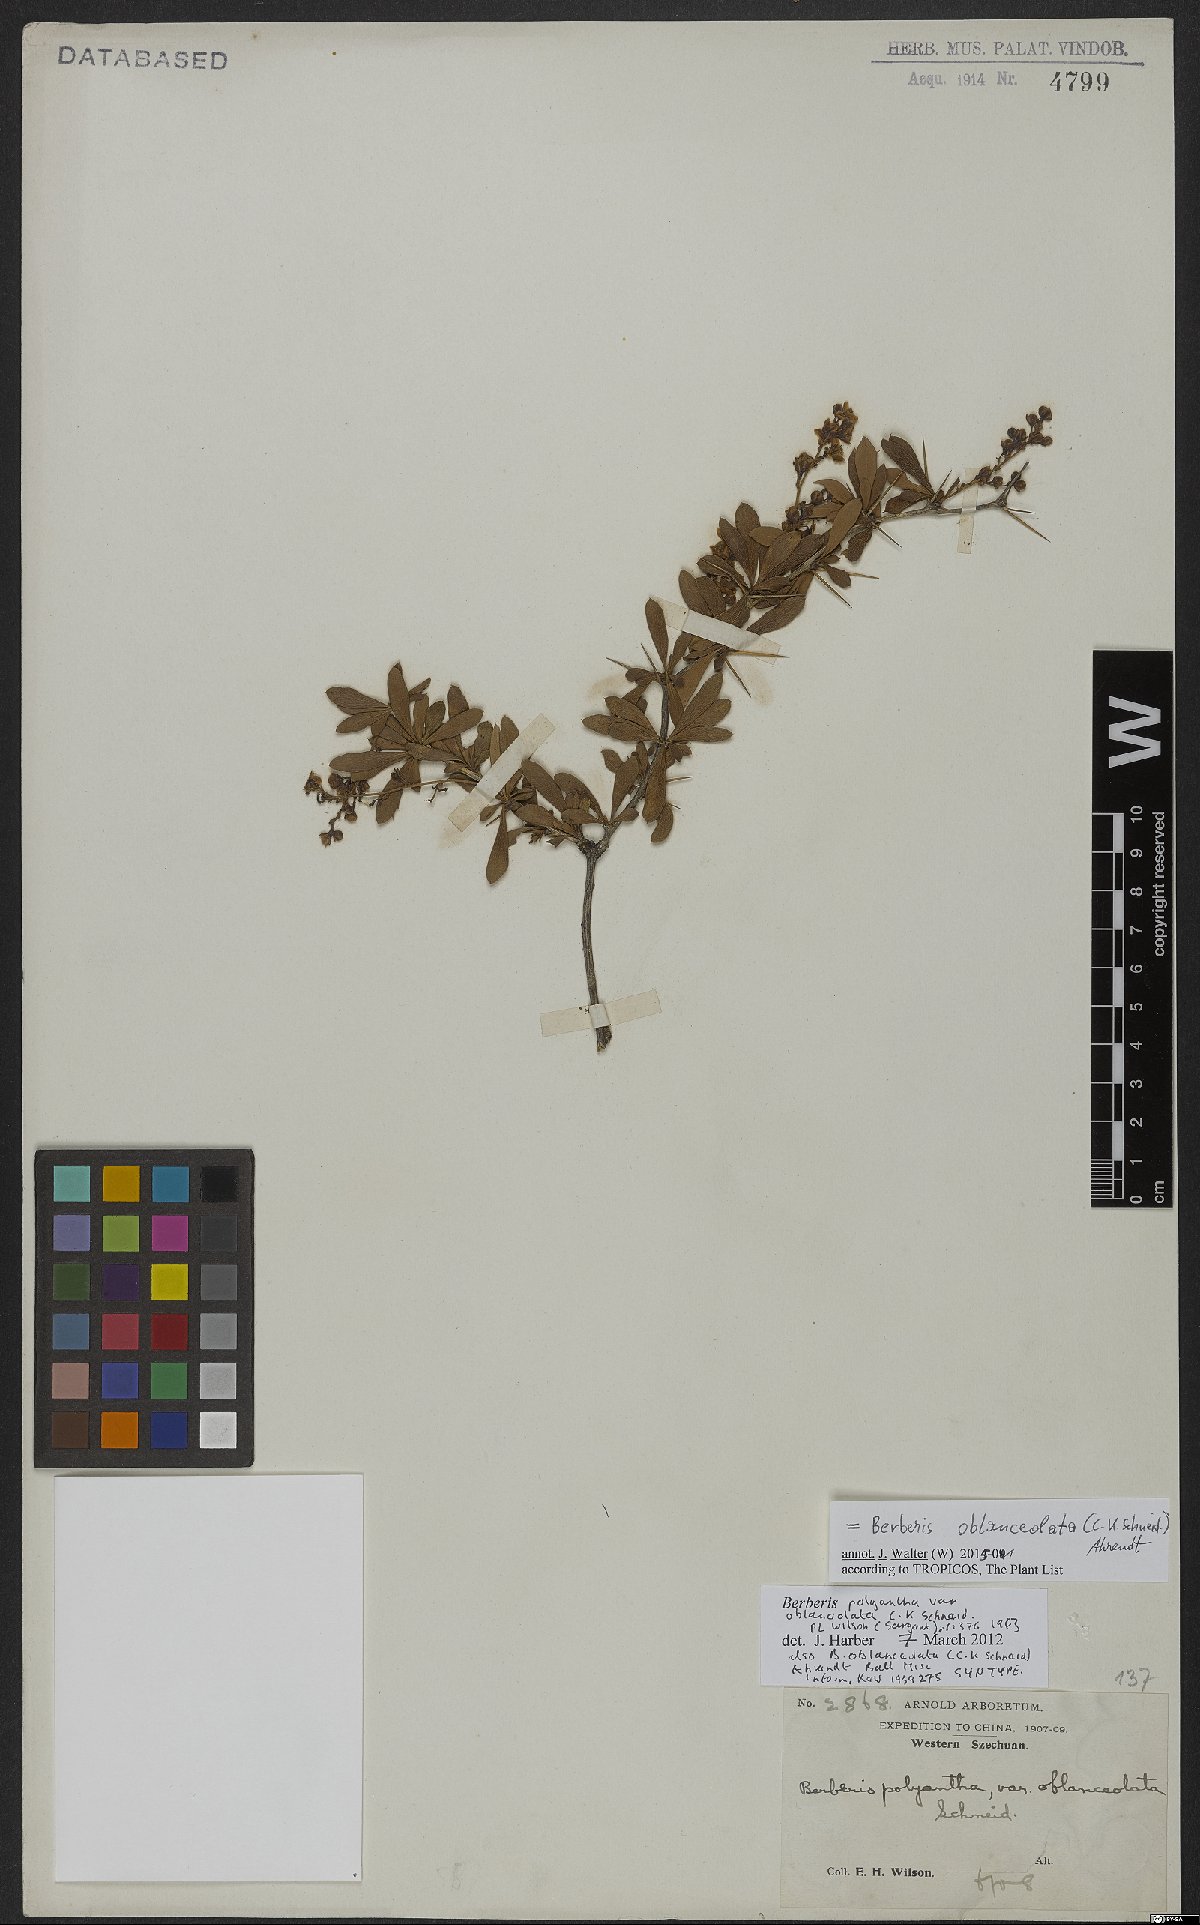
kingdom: Plantae
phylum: Tracheophyta
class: Magnoliopsida
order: Ranunculales
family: Berberidaceae
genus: Berberis
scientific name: Berberis prattii
